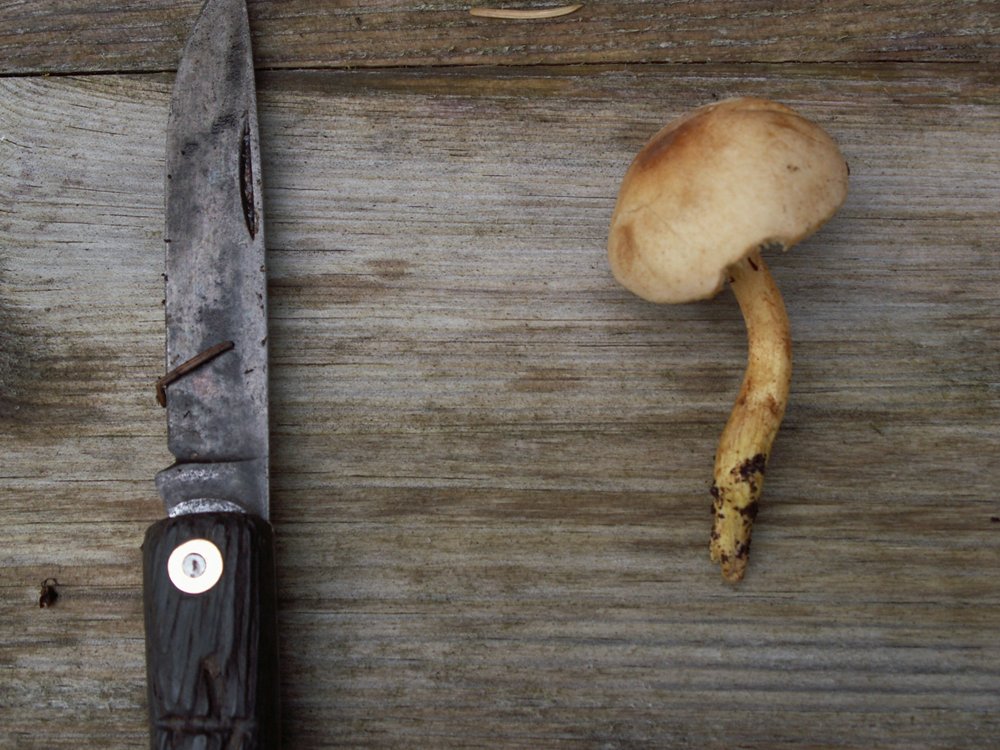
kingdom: Fungi
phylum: Basidiomycota
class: Agaricomycetes
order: Agaricales
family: Tricholomataceae
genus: Tricholoma
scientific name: Tricholoma sulphureum
